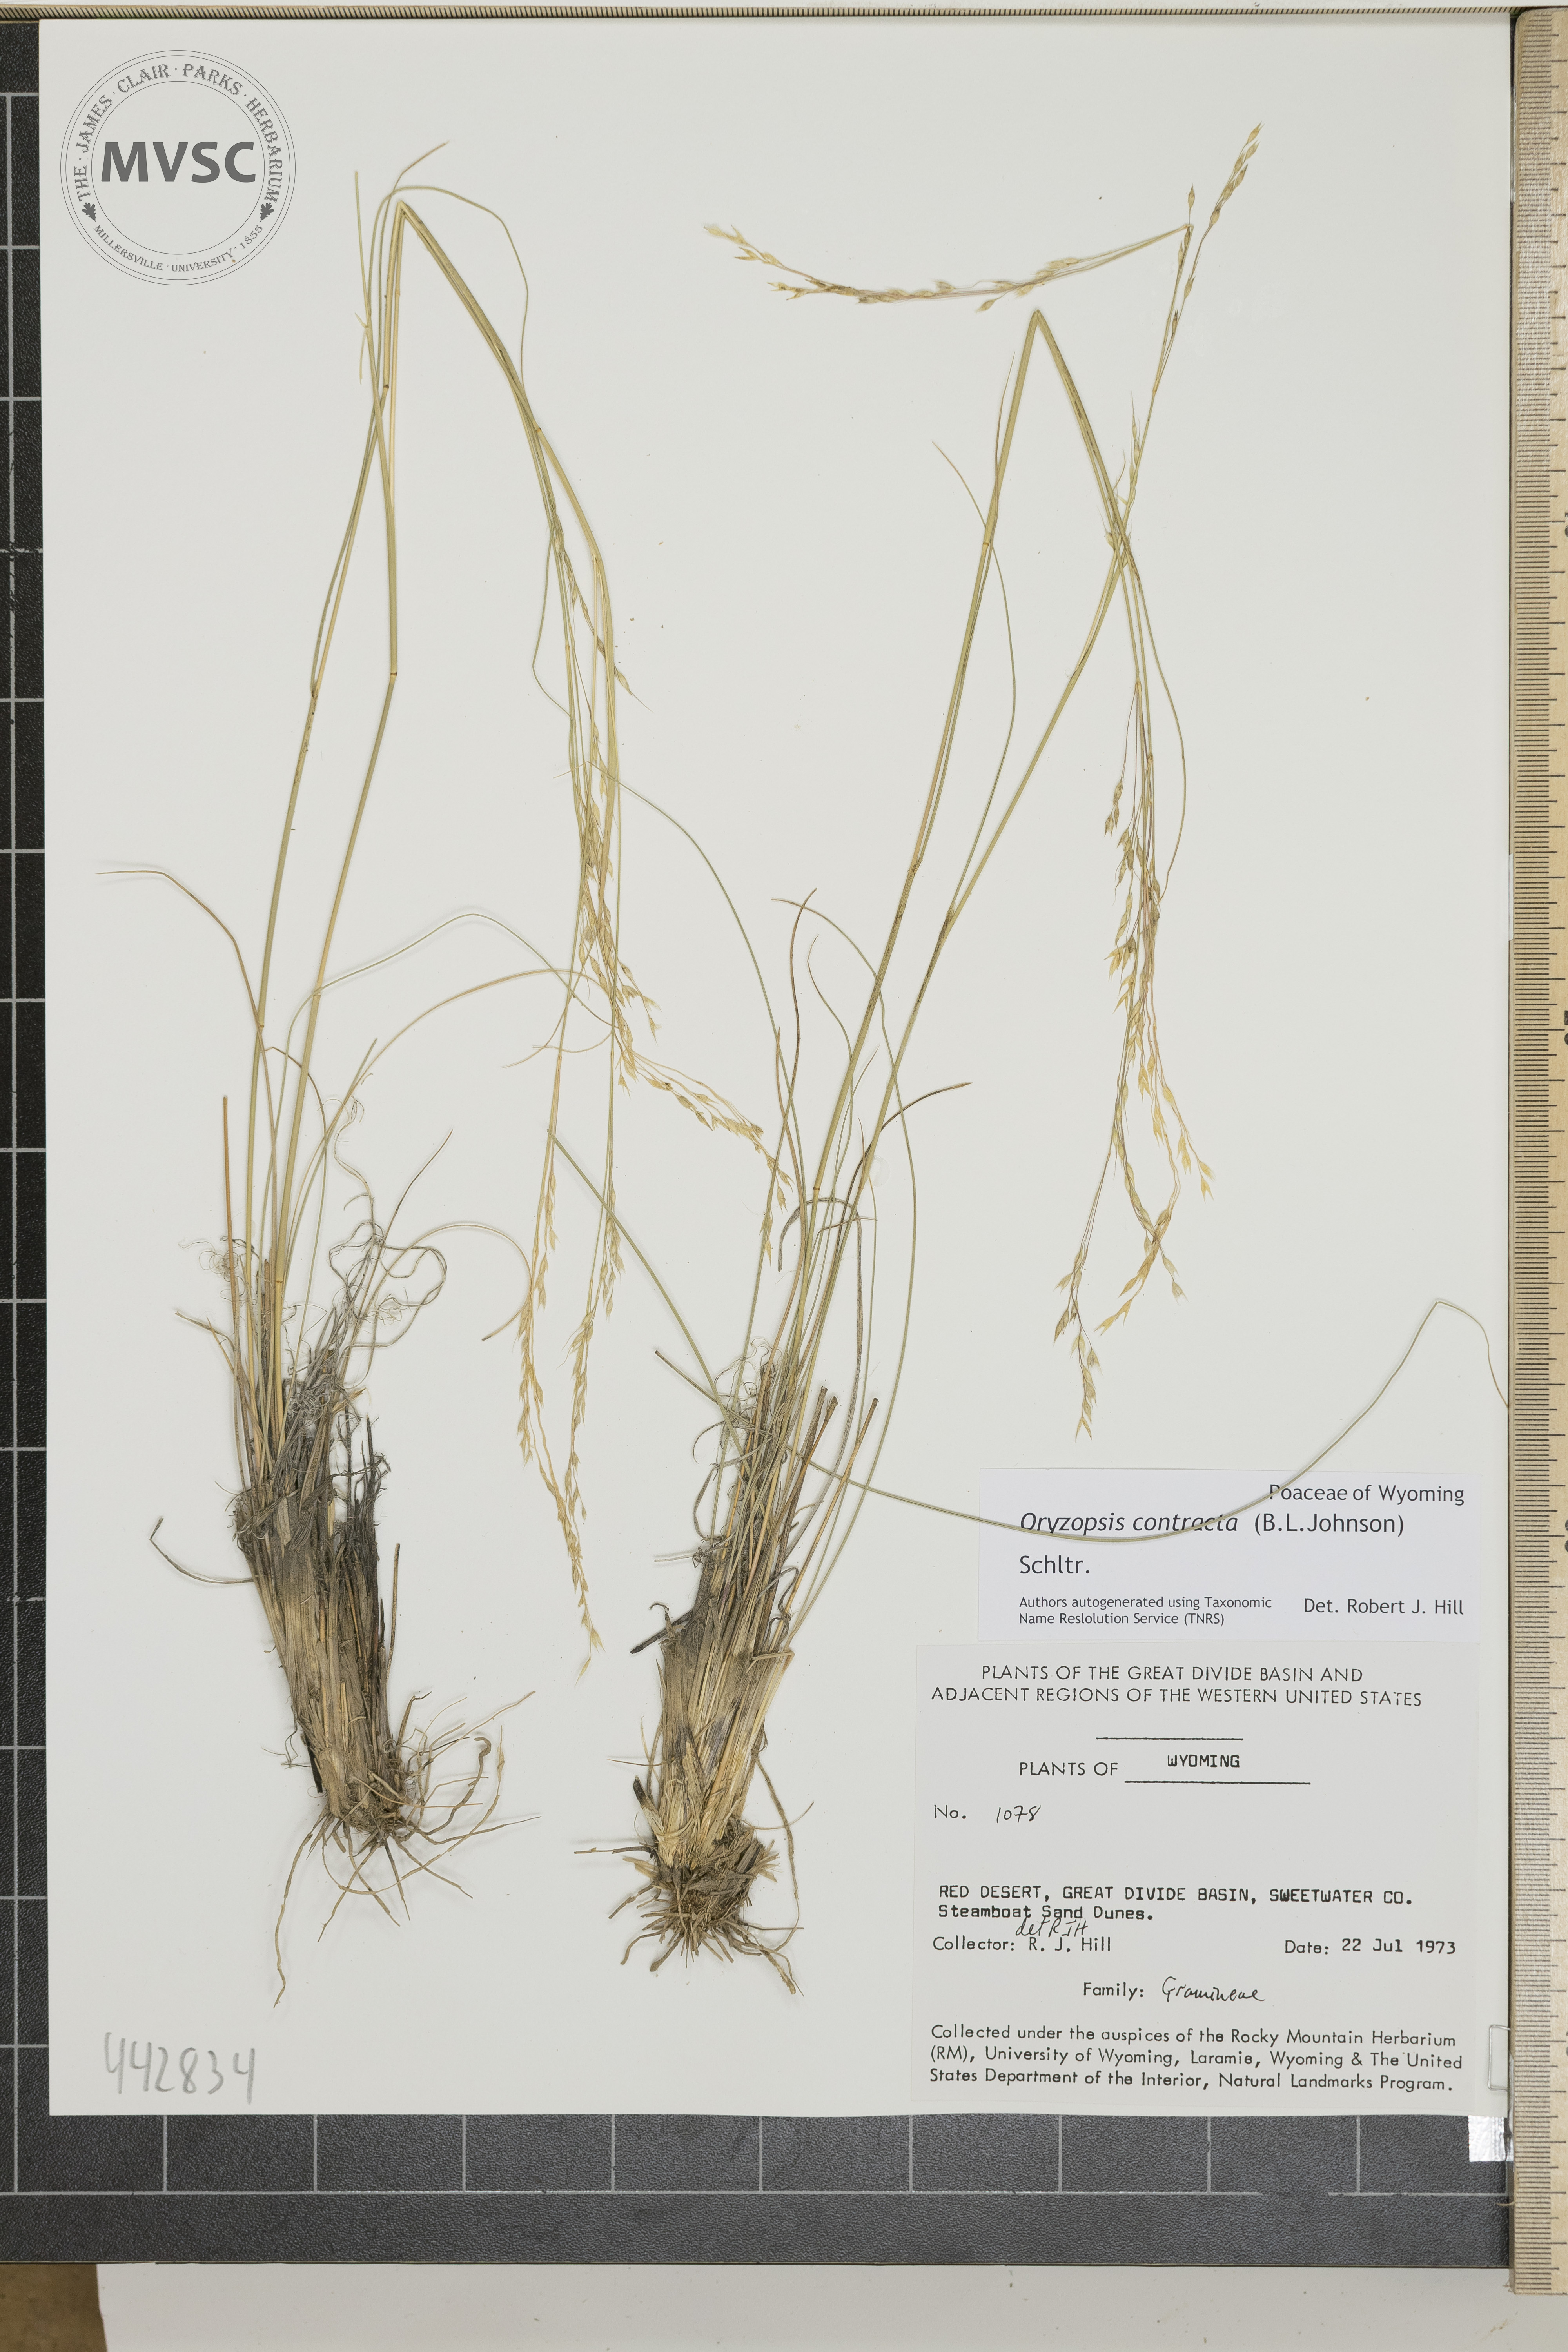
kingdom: Plantae
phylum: Tracheophyta
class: Liliopsida
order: Poales
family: Poaceae
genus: Eriocoma
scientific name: Eriocoma contracta
